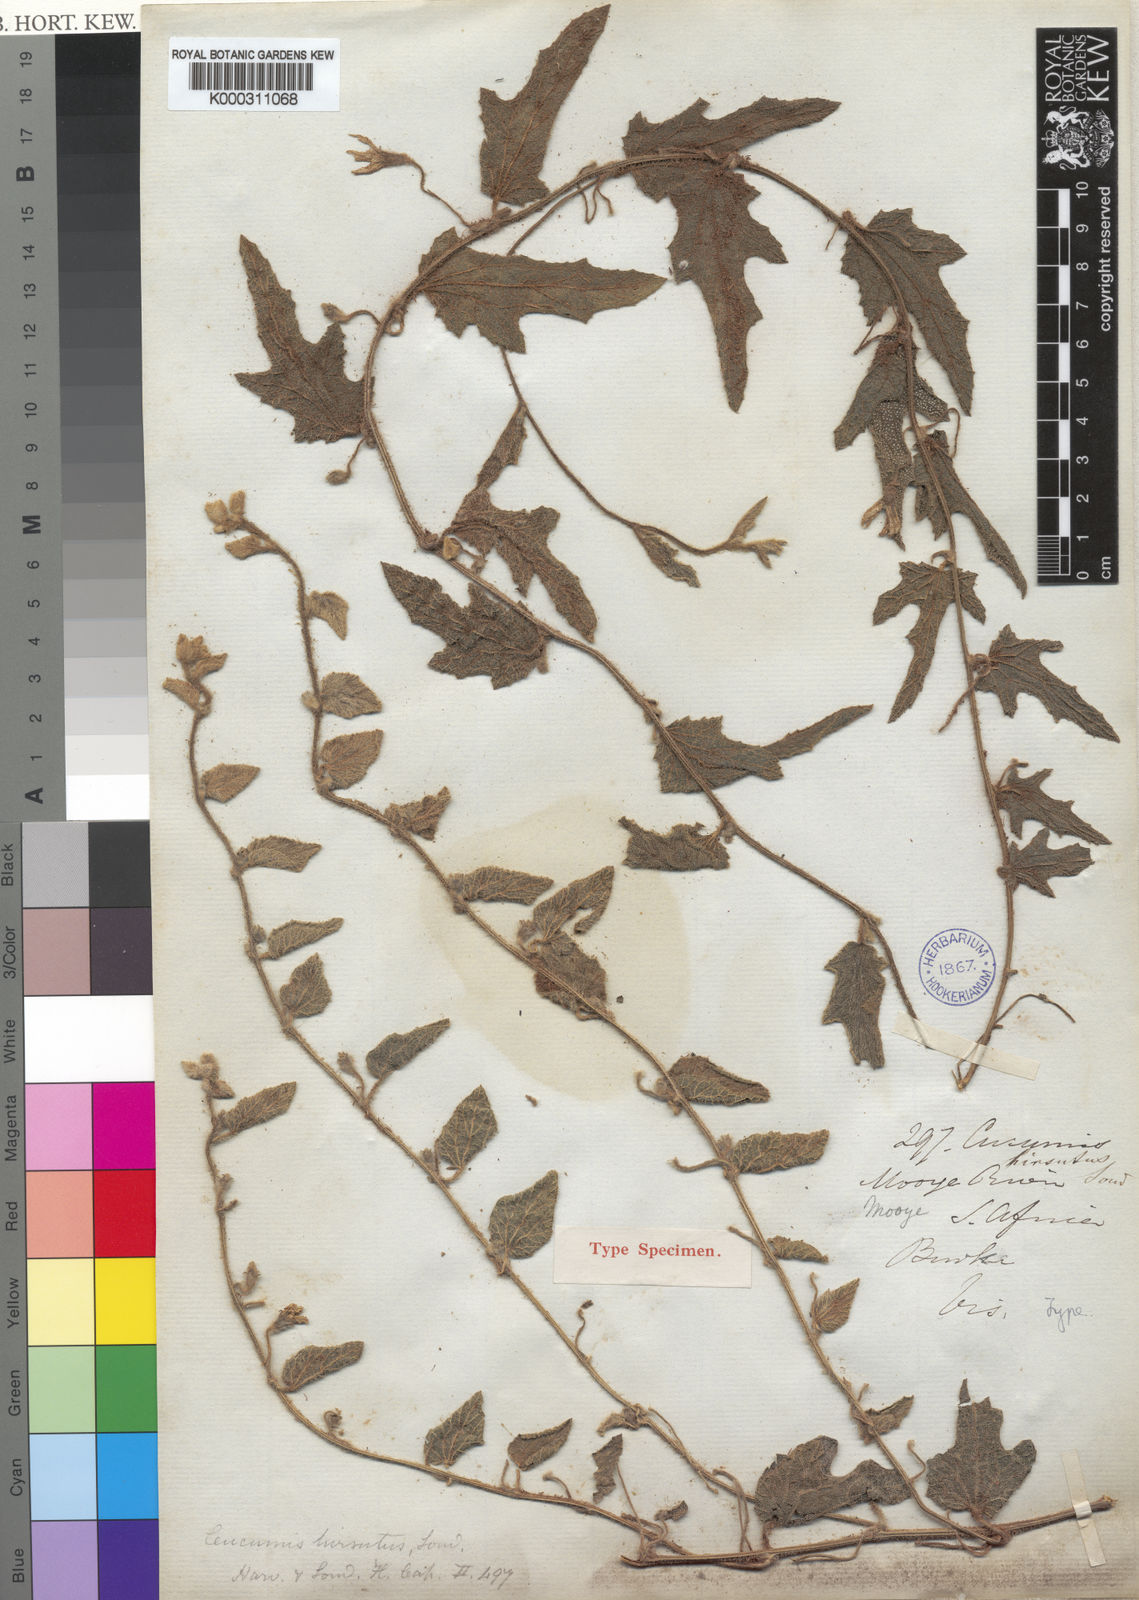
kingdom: Plantae
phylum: Tracheophyta
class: Magnoliopsida
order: Cucurbitales
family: Cucurbitaceae
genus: Cucumis
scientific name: Cucumis hirsutus
